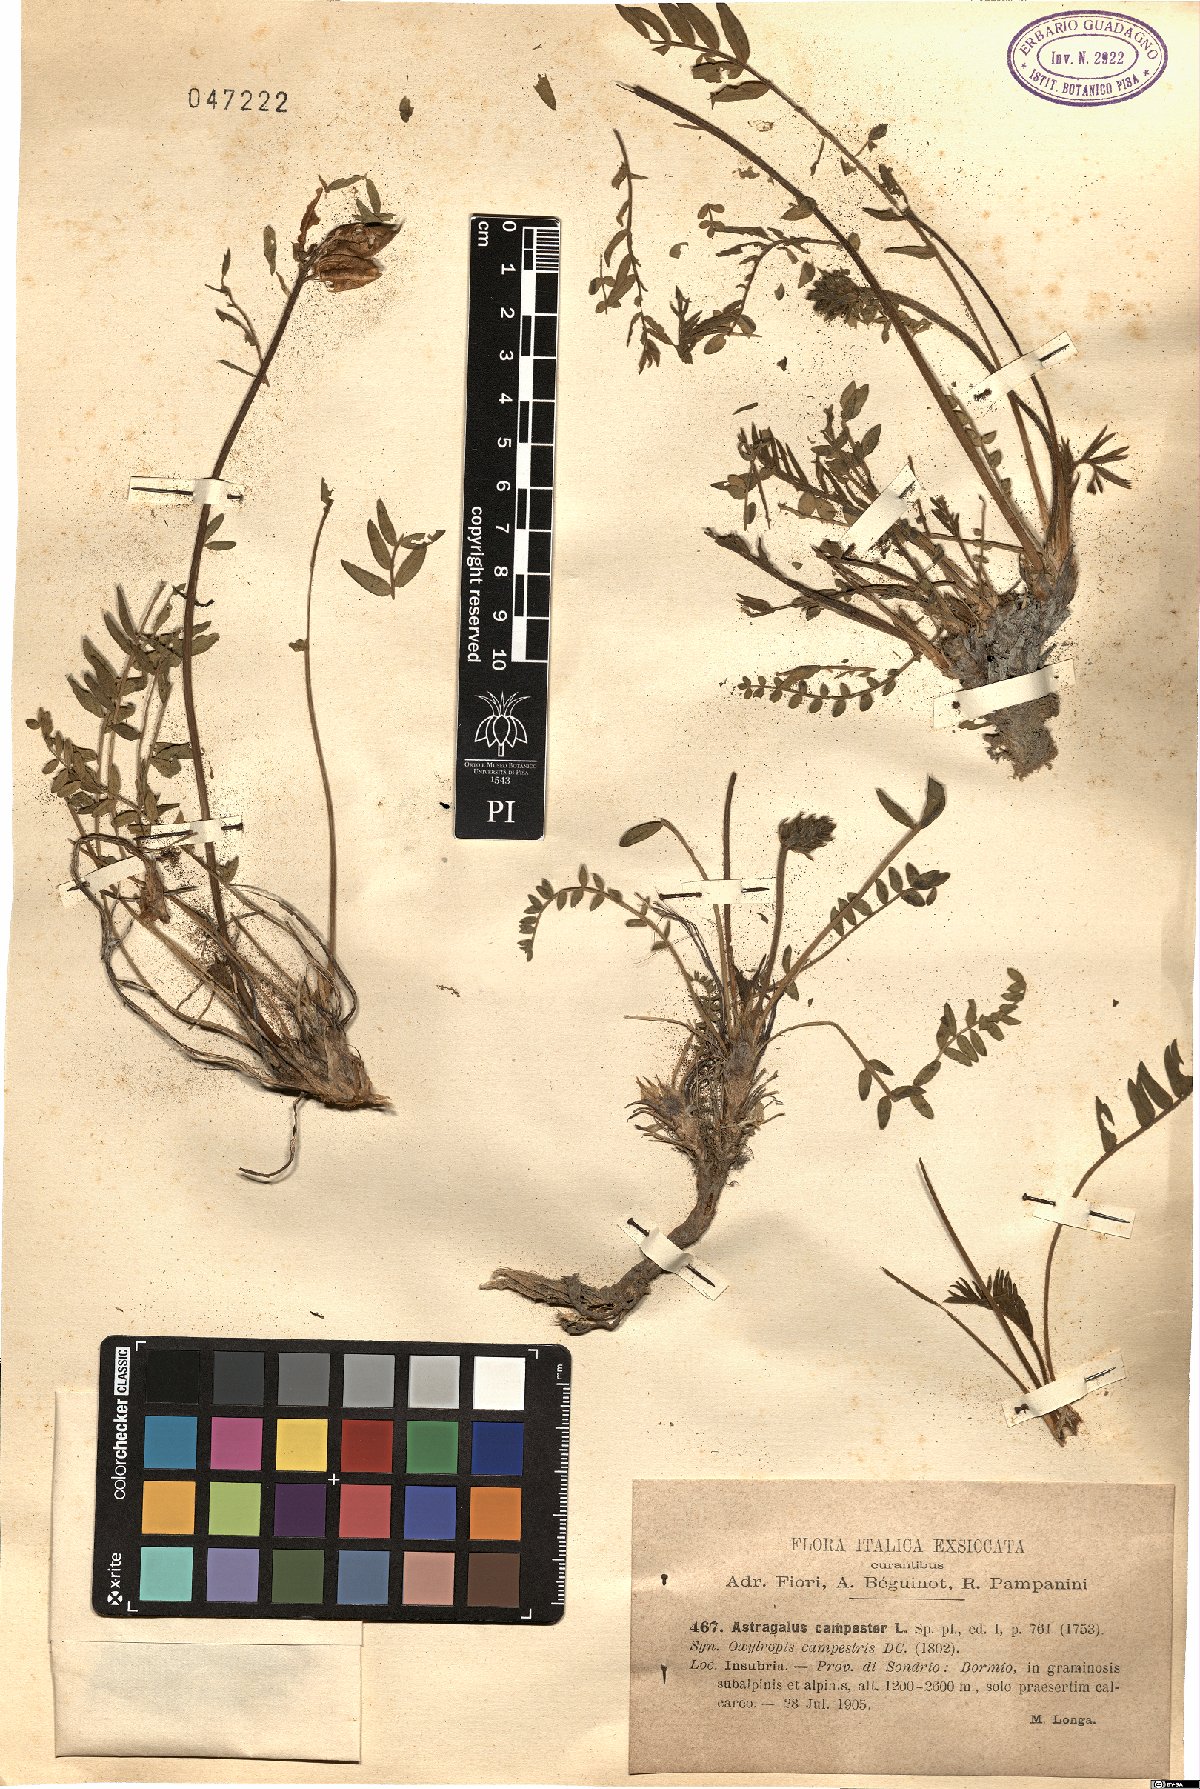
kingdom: Plantae
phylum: Tracheophyta
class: Magnoliopsida
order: Fabales
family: Fabaceae
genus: Oxytropis
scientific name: Oxytropis campestris
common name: Field locoweed
